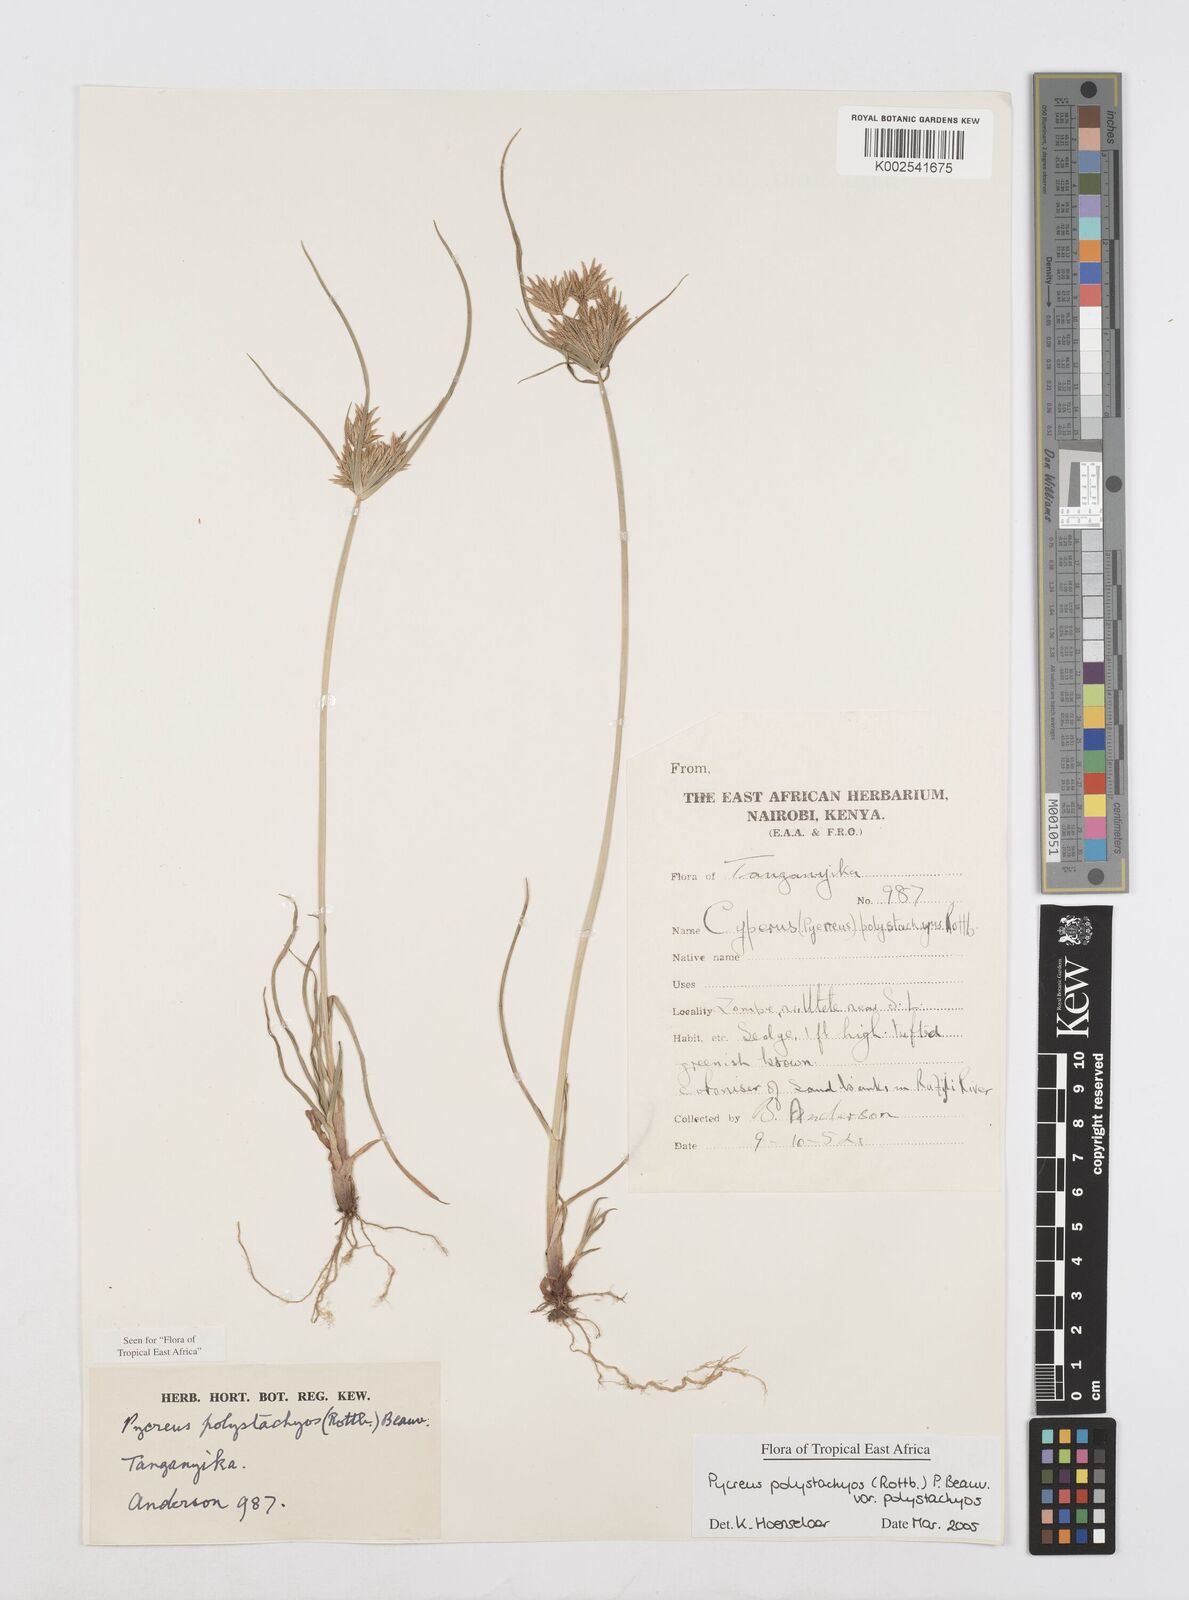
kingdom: Plantae
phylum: Tracheophyta
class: Liliopsida
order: Poales
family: Cyperaceae
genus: Cyperus
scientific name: Cyperus polystachyos
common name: Bunchy flat sedge
